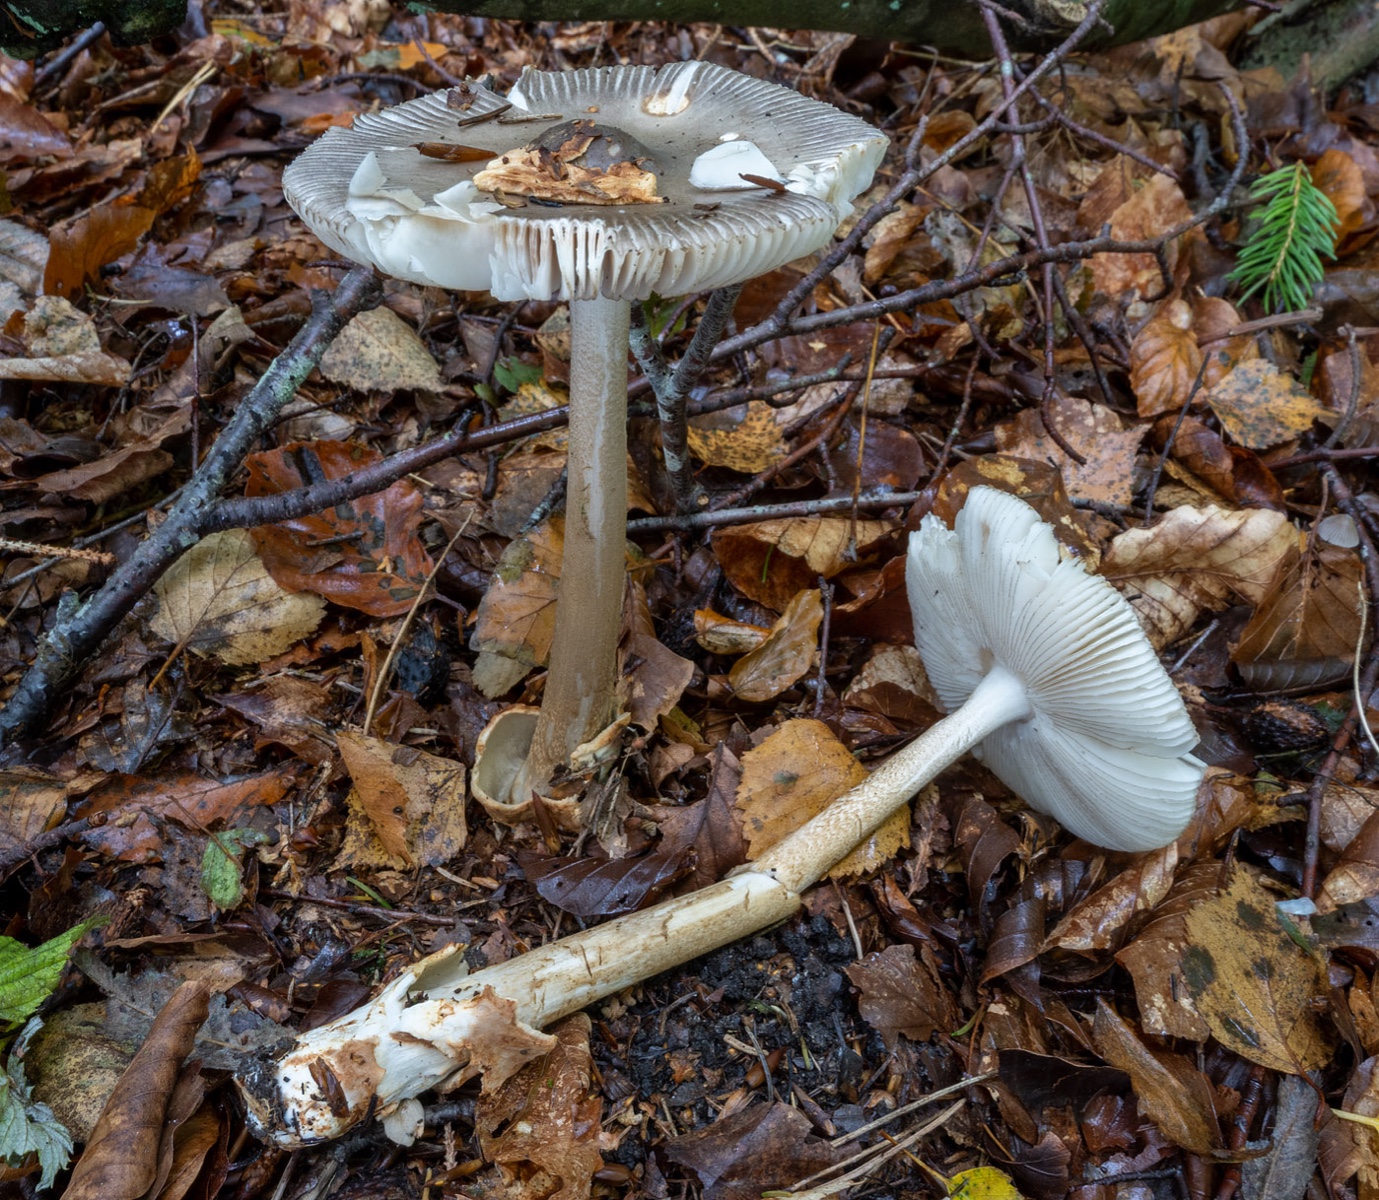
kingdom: Fungi
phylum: Basidiomycota
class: Agaricomycetes
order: Agaricales
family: Amanitaceae
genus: Amanita
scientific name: Amanita battarrae
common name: zoneret kam-fluesvamp
